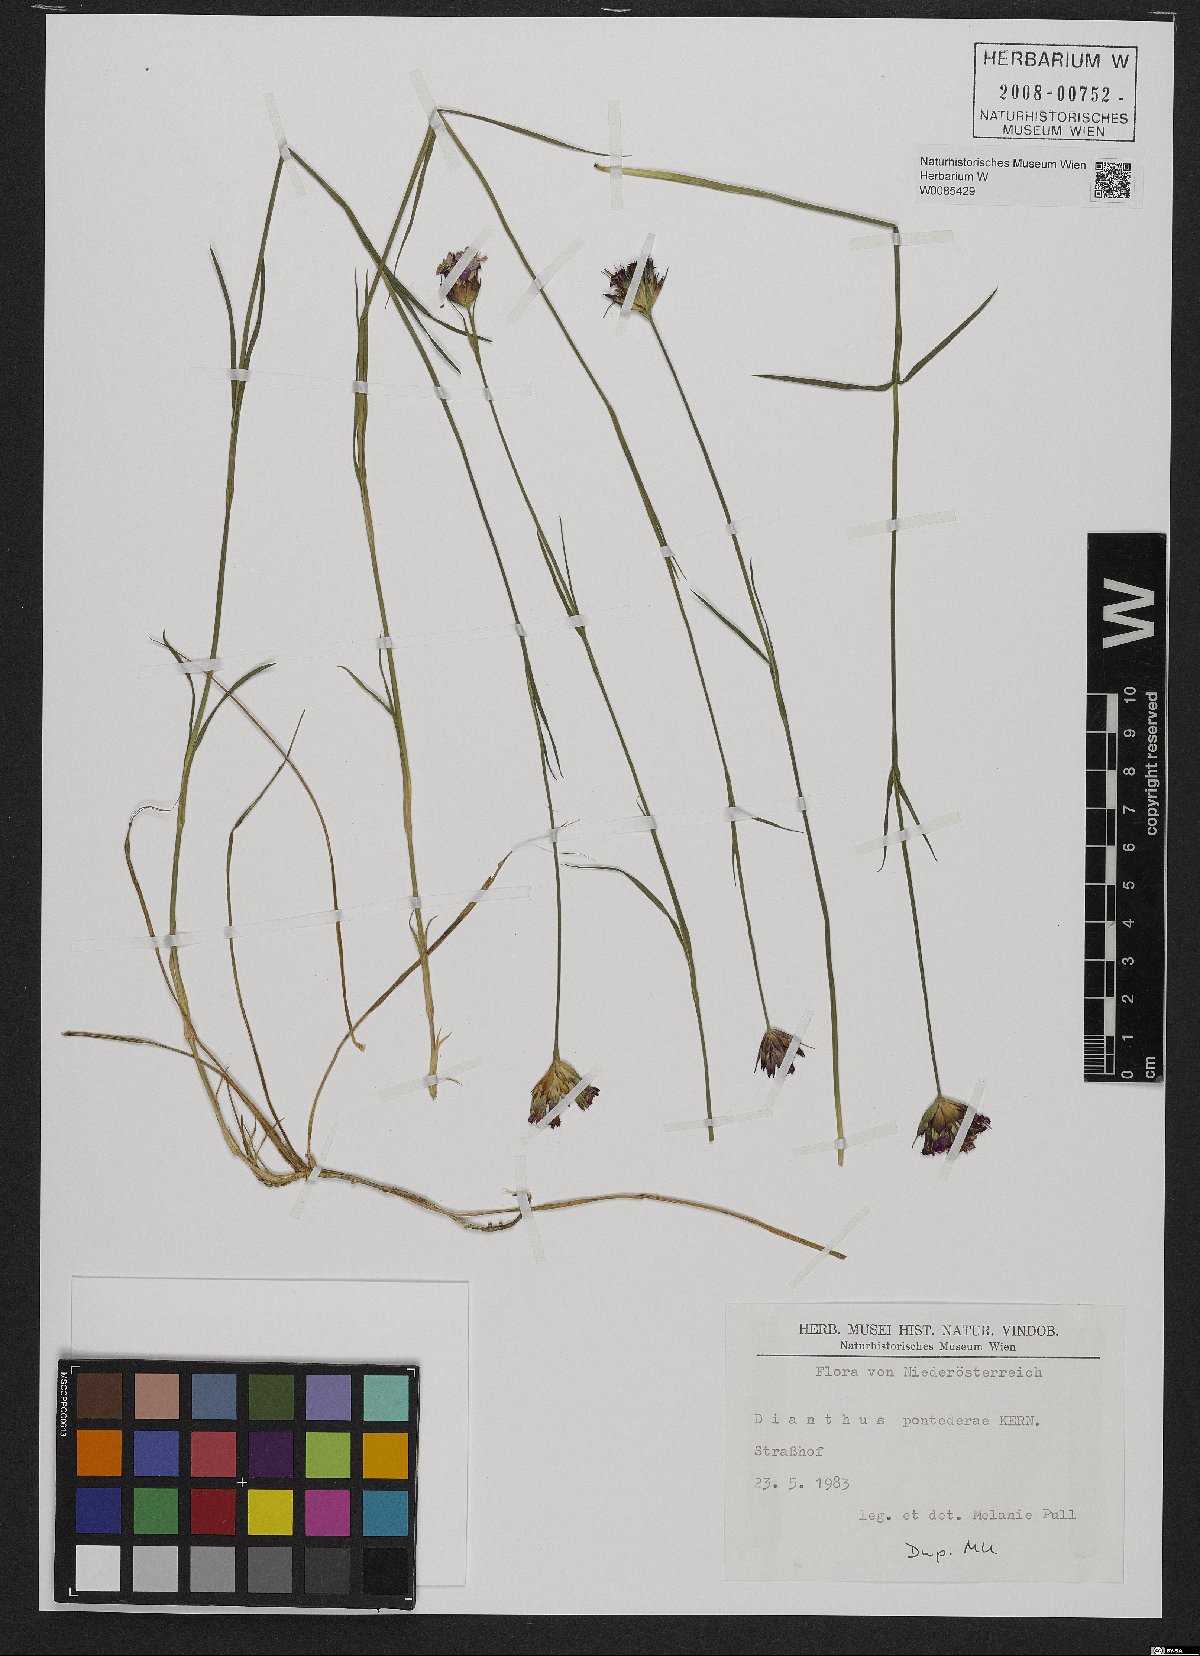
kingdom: Plantae
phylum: Tracheophyta
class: Magnoliopsida
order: Caryophyllales
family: Caryophyllaceae
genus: Dianthus
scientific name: Dianthus pontederae
